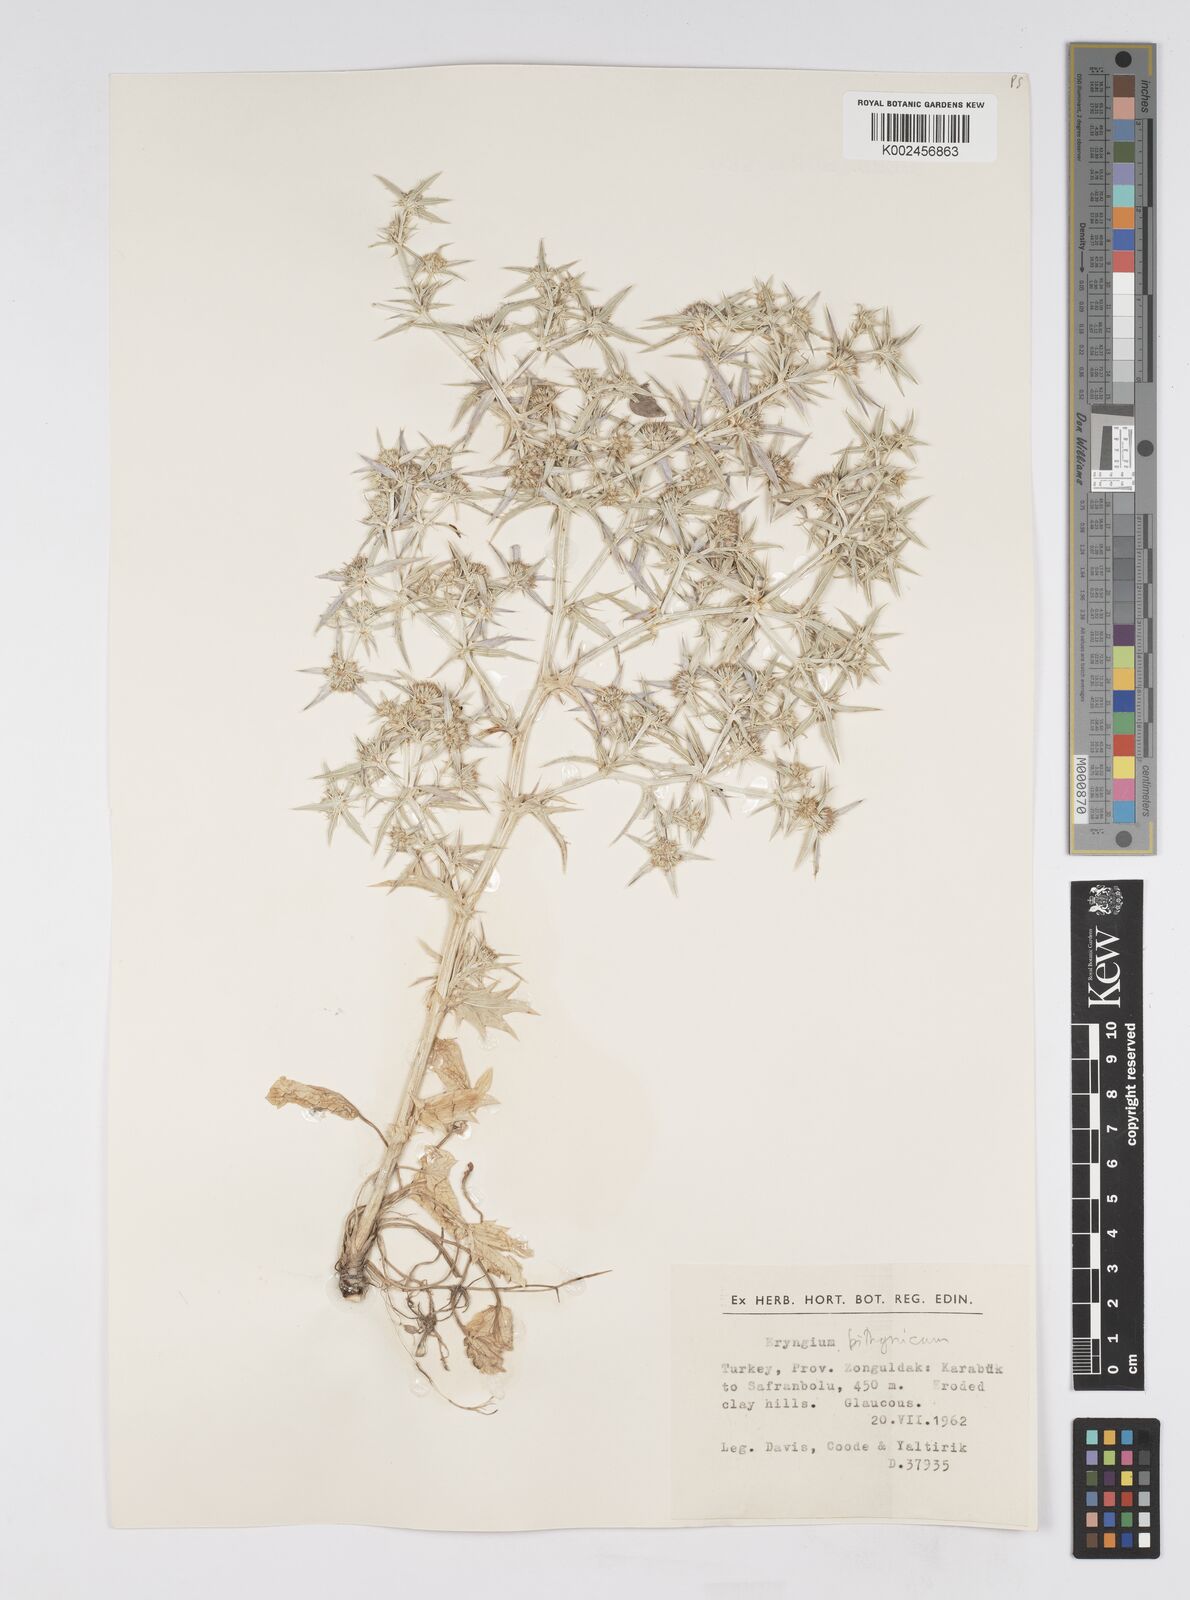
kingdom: Plantae
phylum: Tracheophyta
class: Magnoliopsida
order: Apiales
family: Apiaceae
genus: Eryngium
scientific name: Eryngium bithynicum
